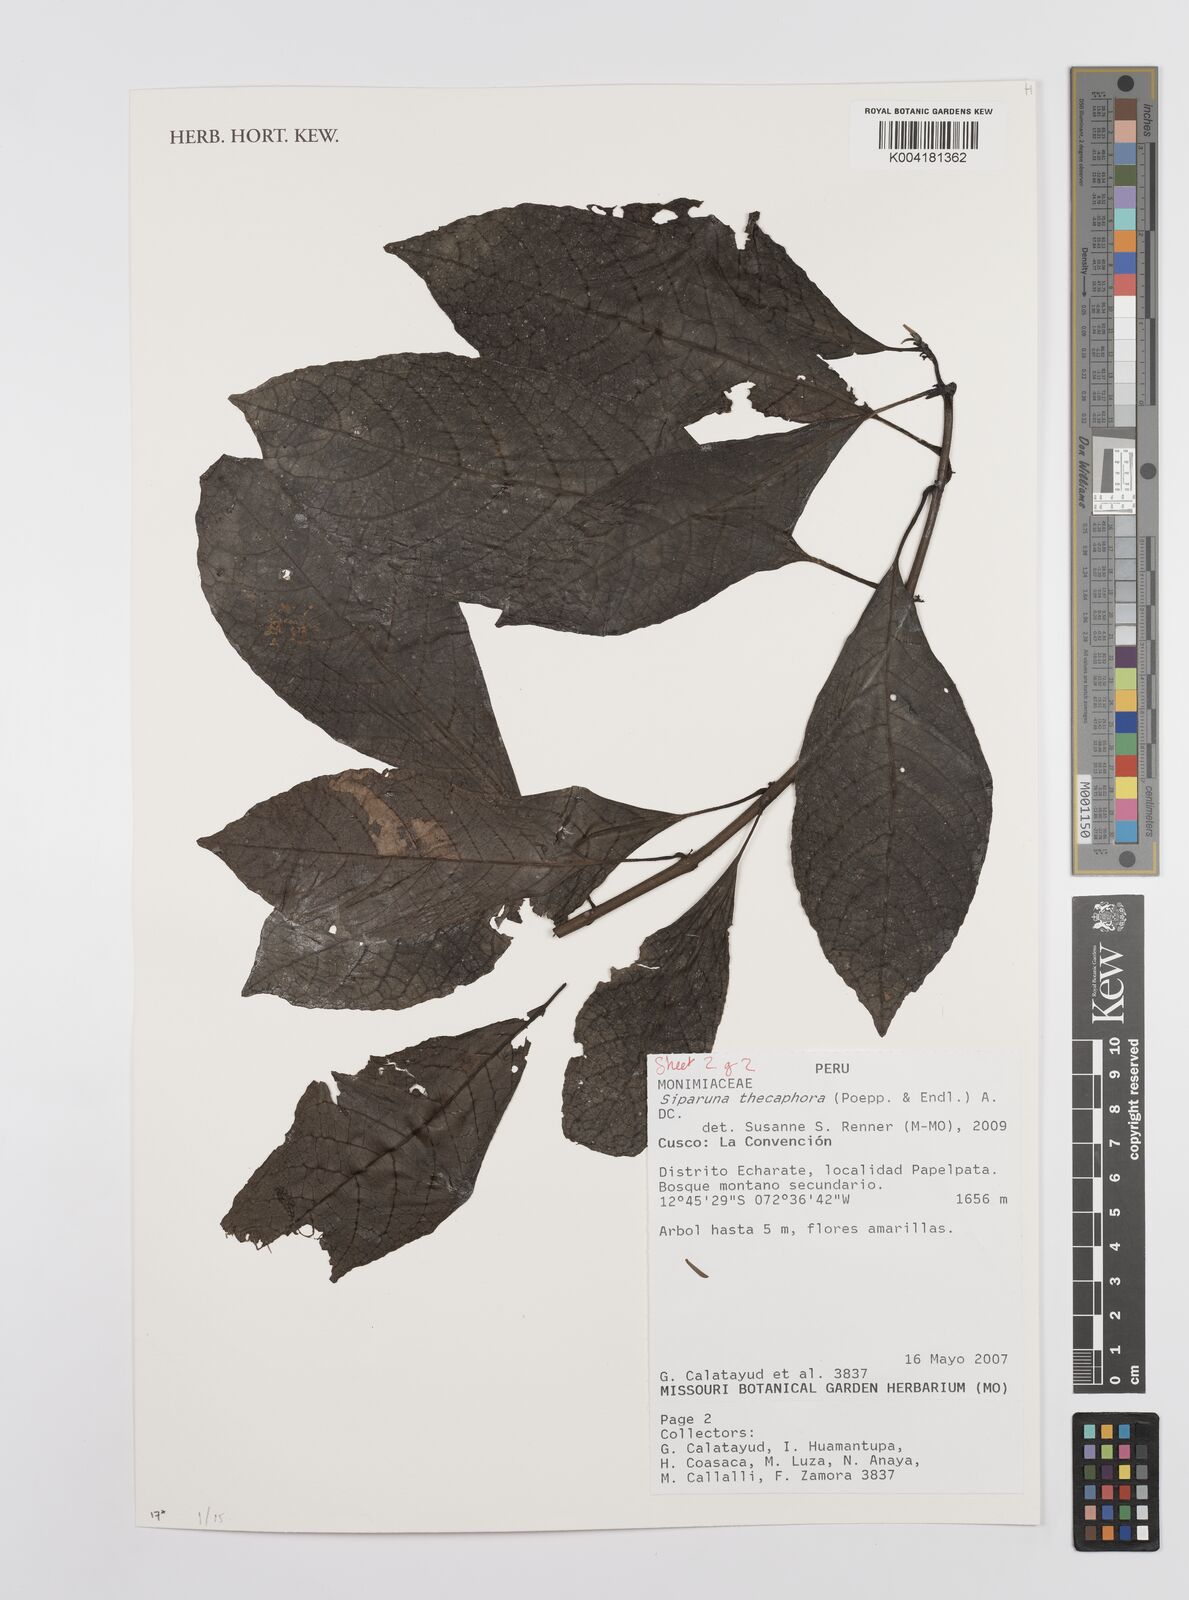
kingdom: Plantae
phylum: Tracheophyta
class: Magnoliopsida
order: Laurales
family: Siparunaceae
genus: Siparuna
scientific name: Siparuna thecaphora
